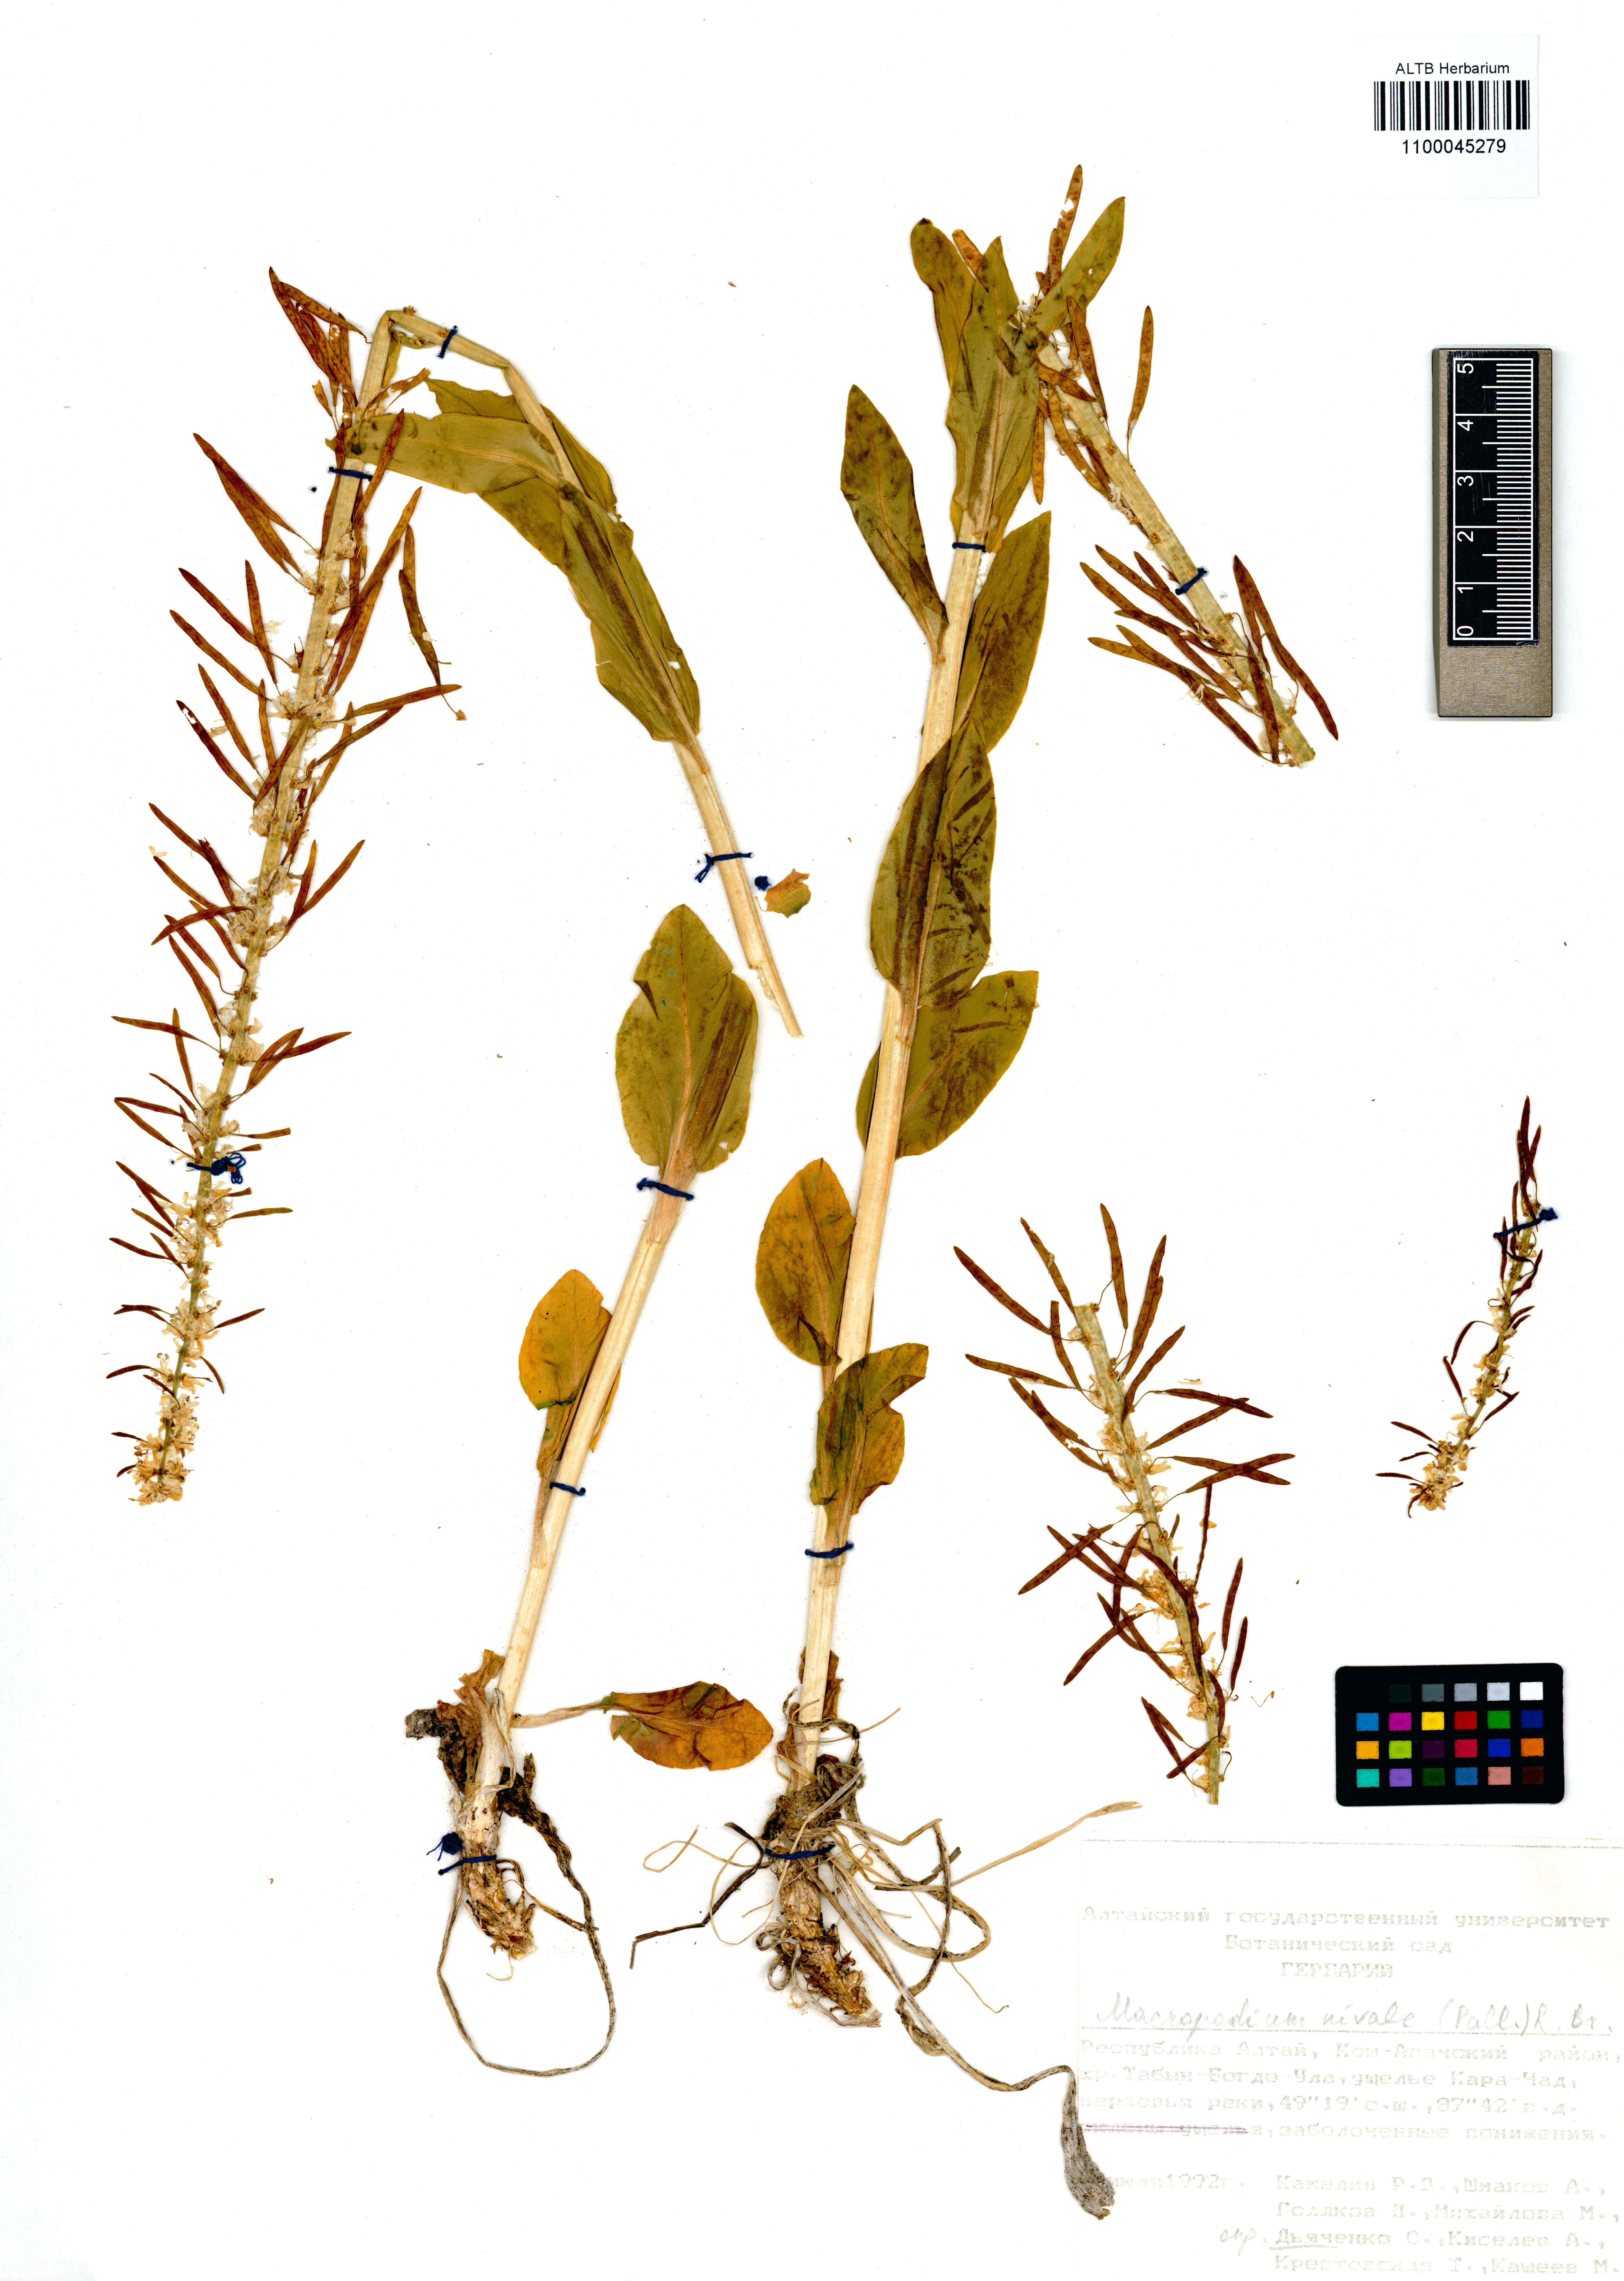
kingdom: Plantae
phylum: Tracheophyta
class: Magnoliopsida
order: Brassicales
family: Brassicaceae
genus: Macropodium
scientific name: Macropodium nivale
